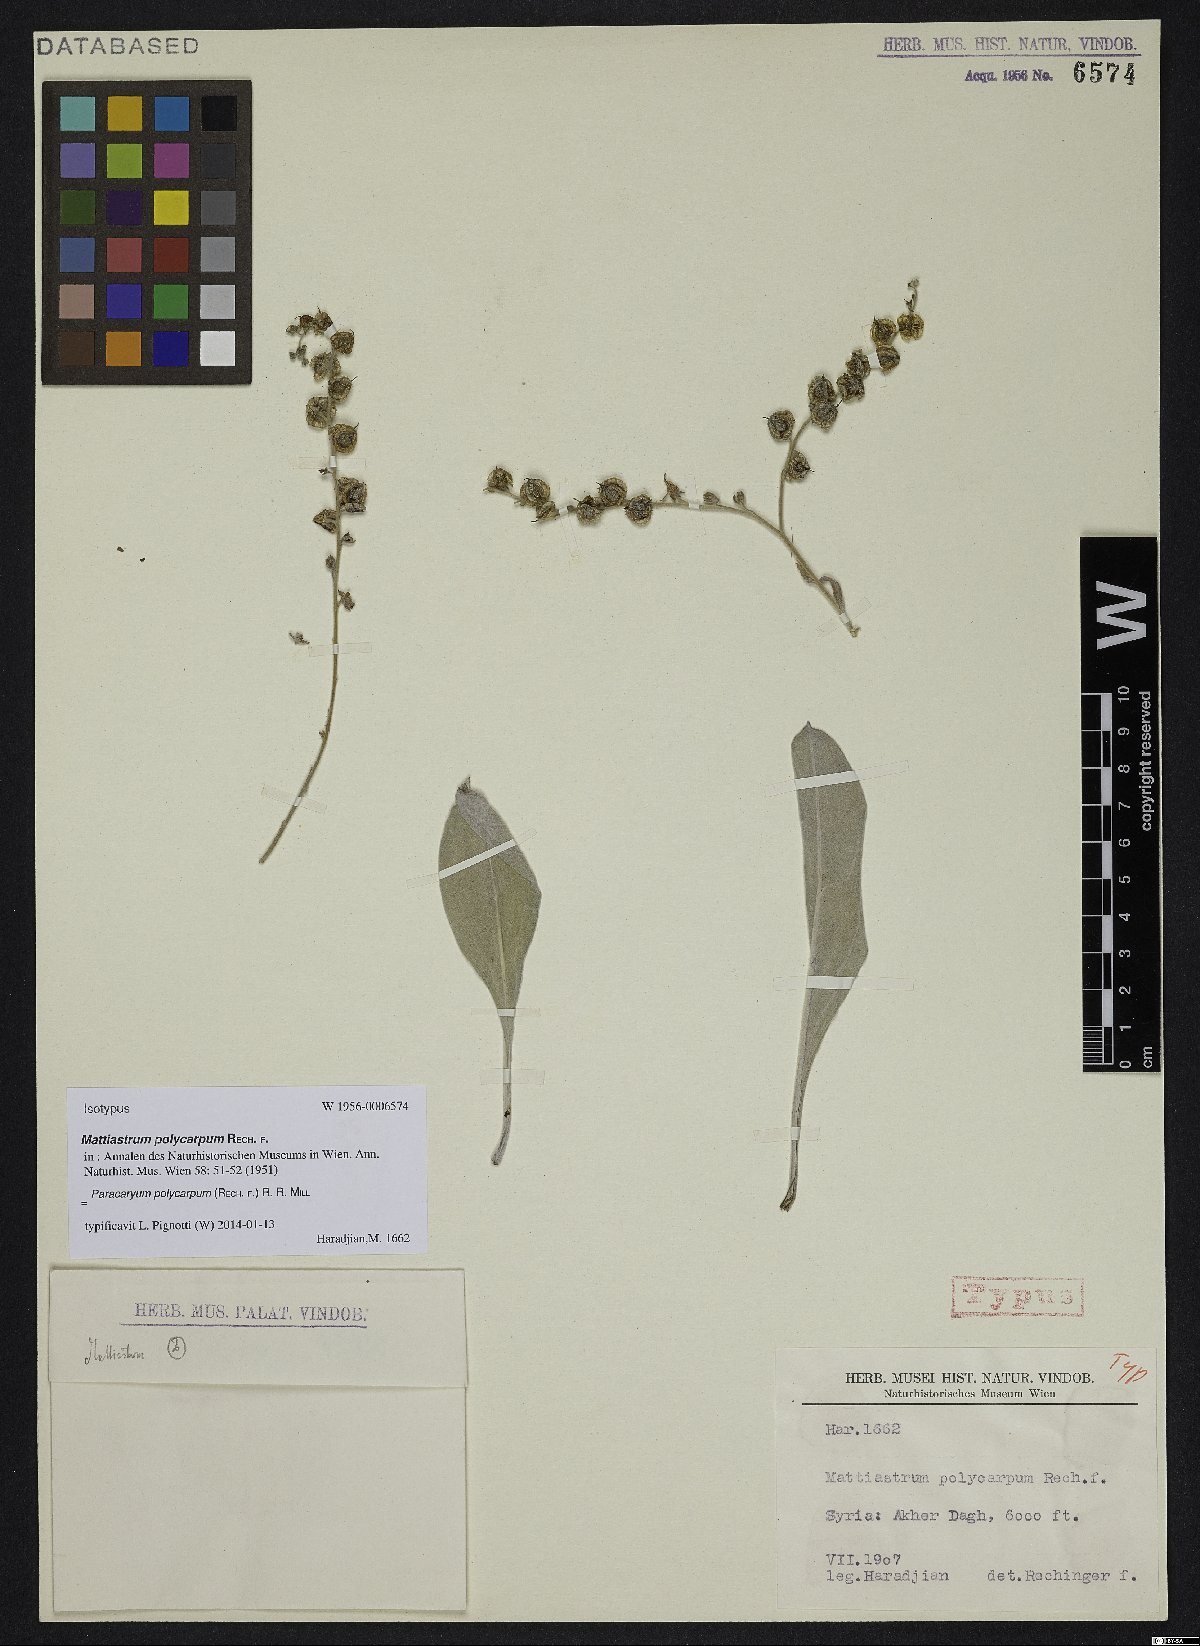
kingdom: Plantae
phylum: Tracheophyta
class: Magnoliopsida
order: Boraginales
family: Boraginaceae
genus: Paracaryum
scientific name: Paracaryum polycarpum
